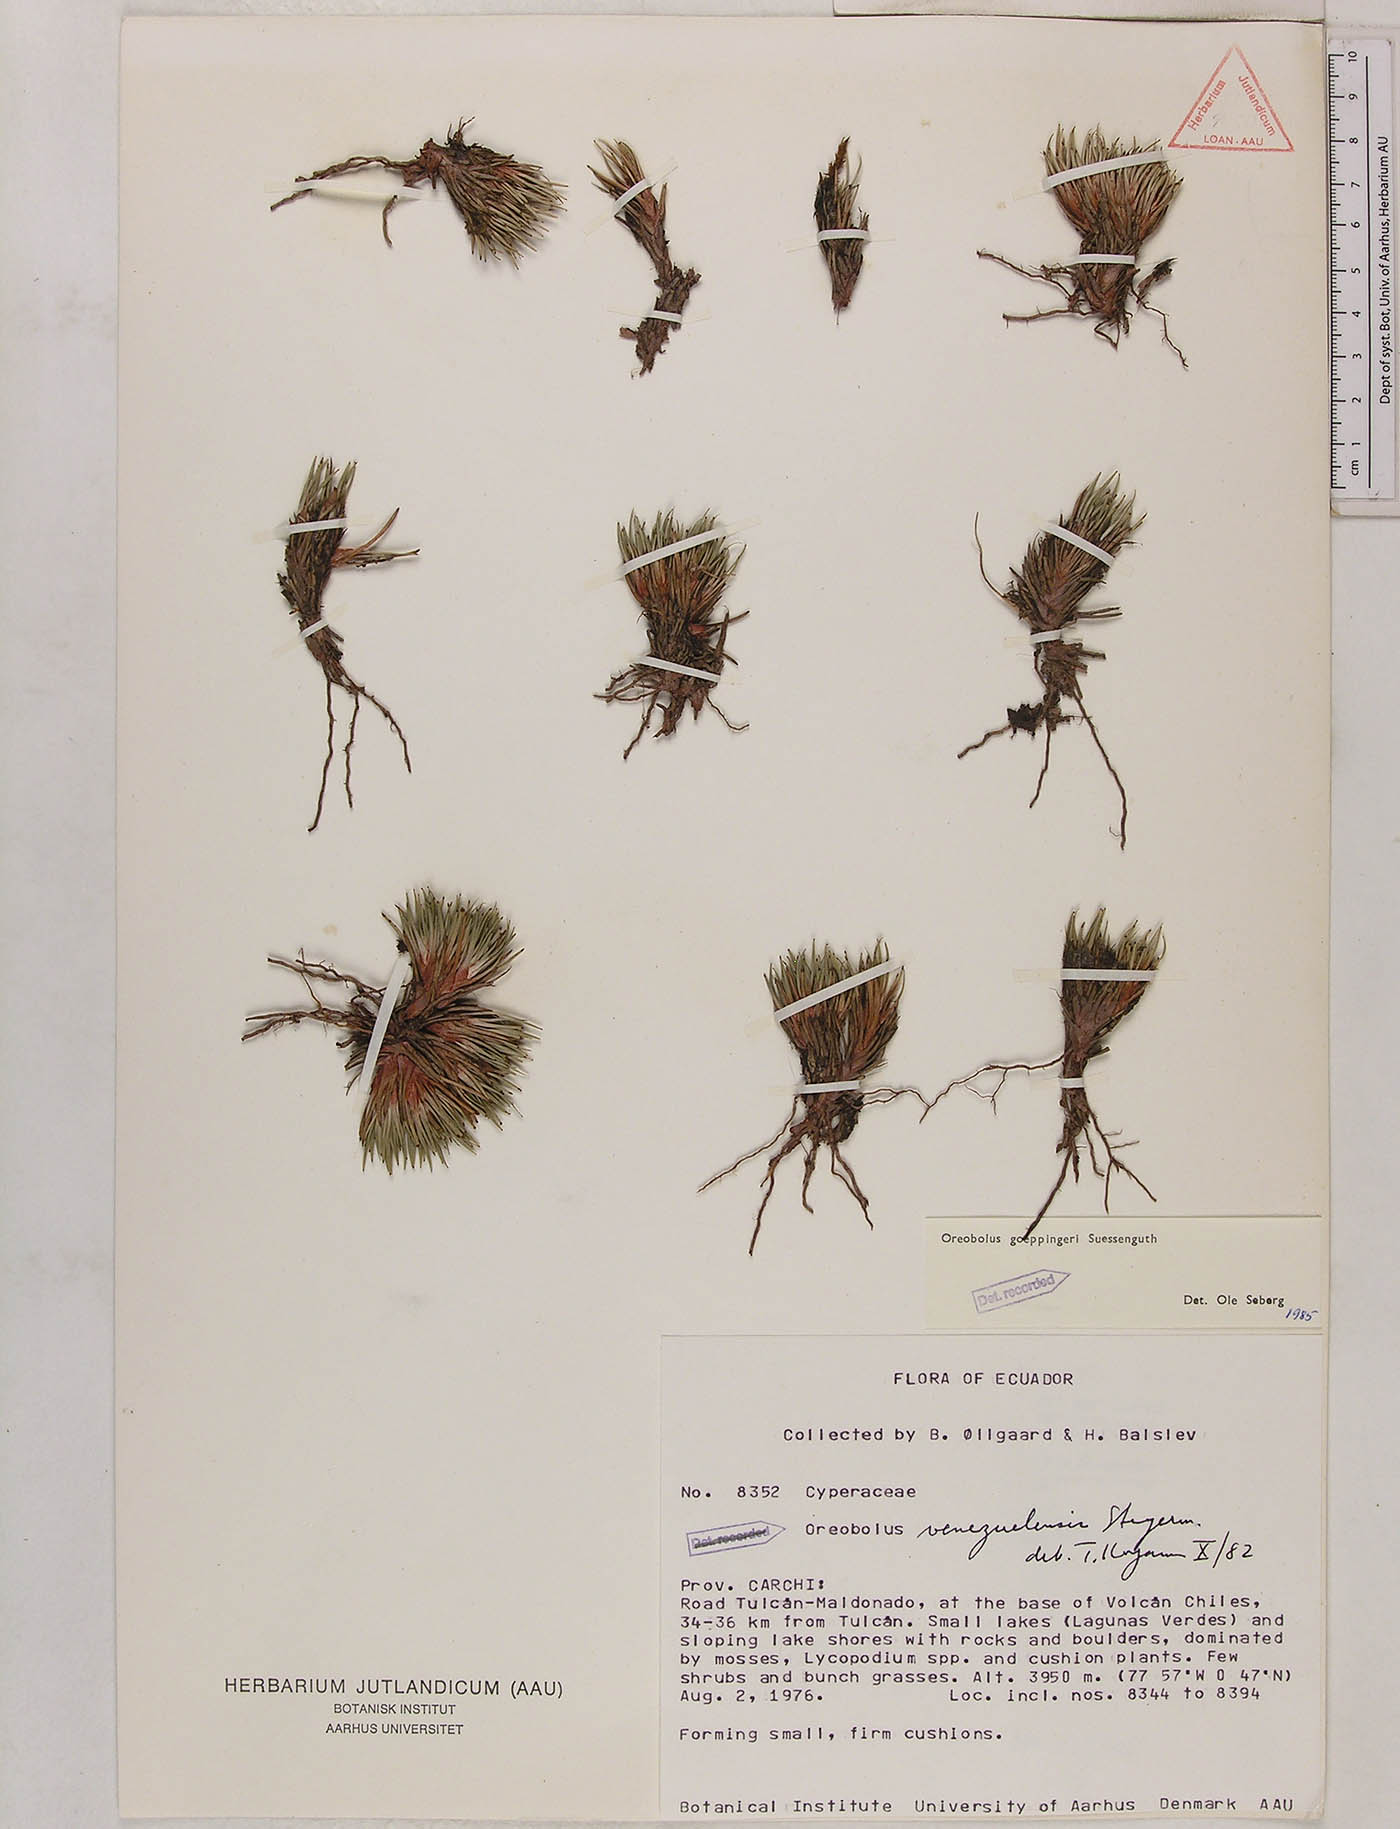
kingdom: Plantae
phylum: Tracheophyta
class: Liliopsida
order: Poales
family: Cyperaceae
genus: Oreobolus
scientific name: Oreobolus goeppingeri
